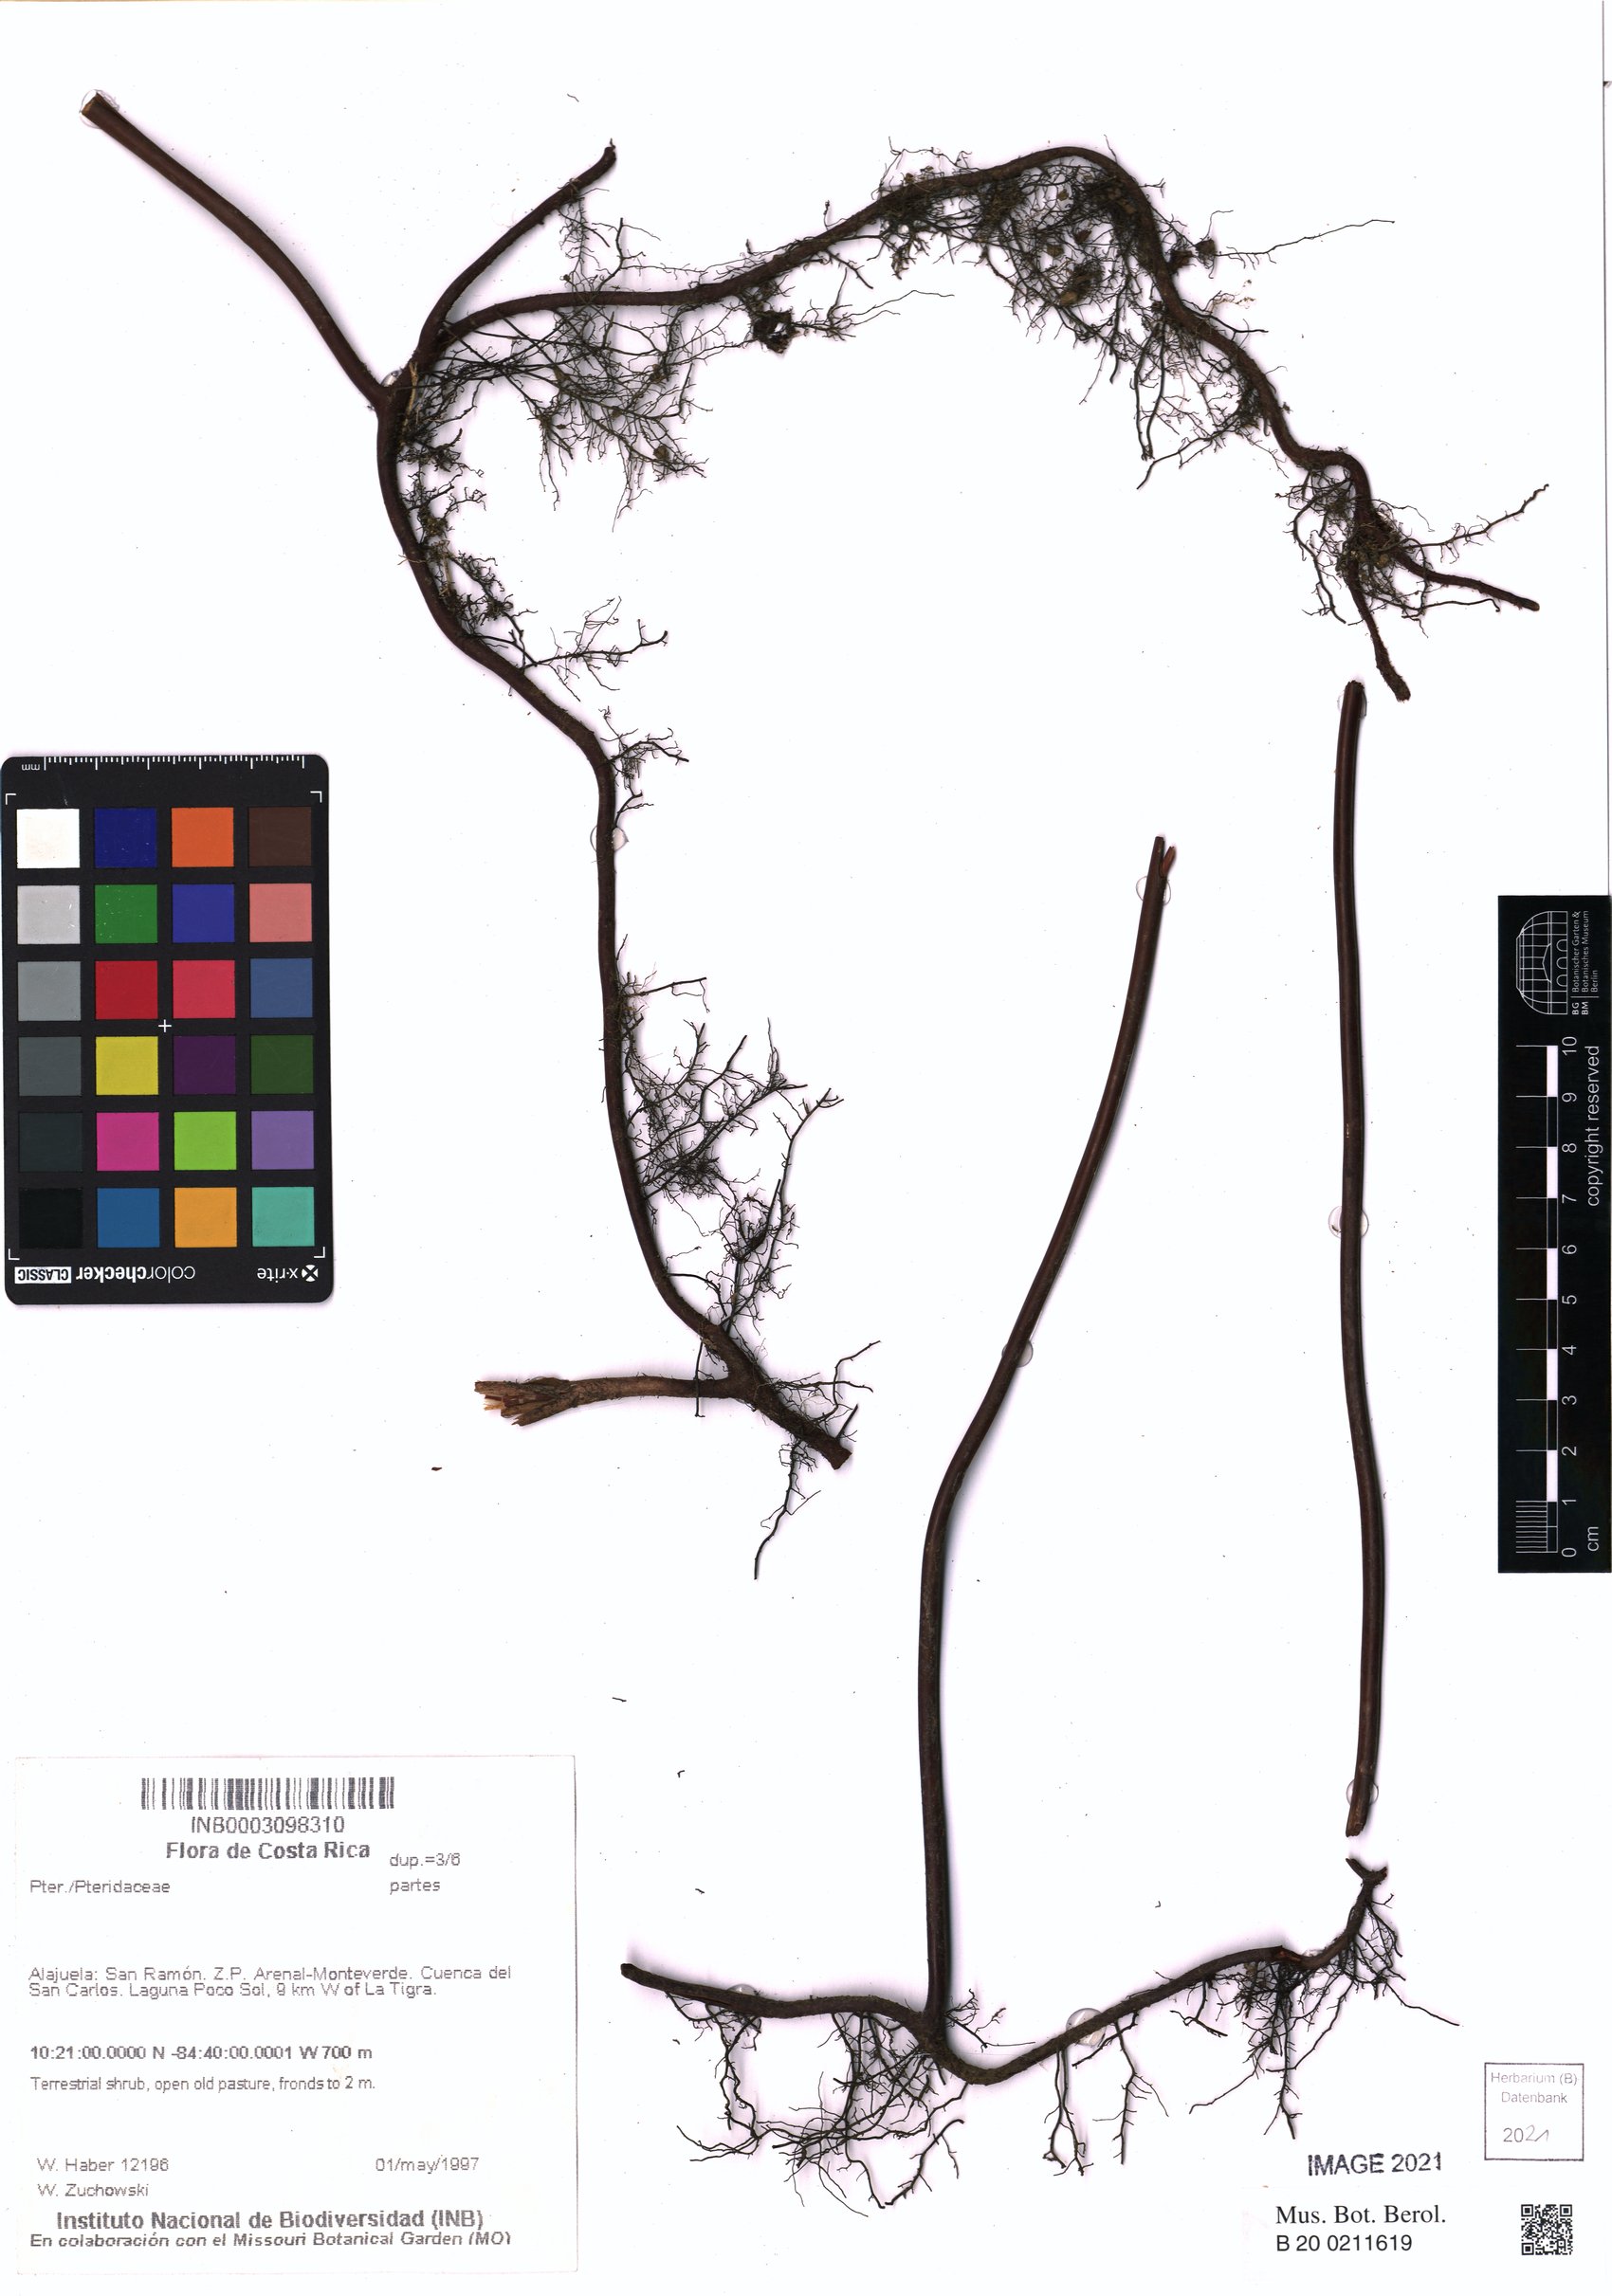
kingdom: Plantae
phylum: Tracheophyta
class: Polypodiopsida
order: Polypodiales
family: Pteridaceae
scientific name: Pteridaceae
